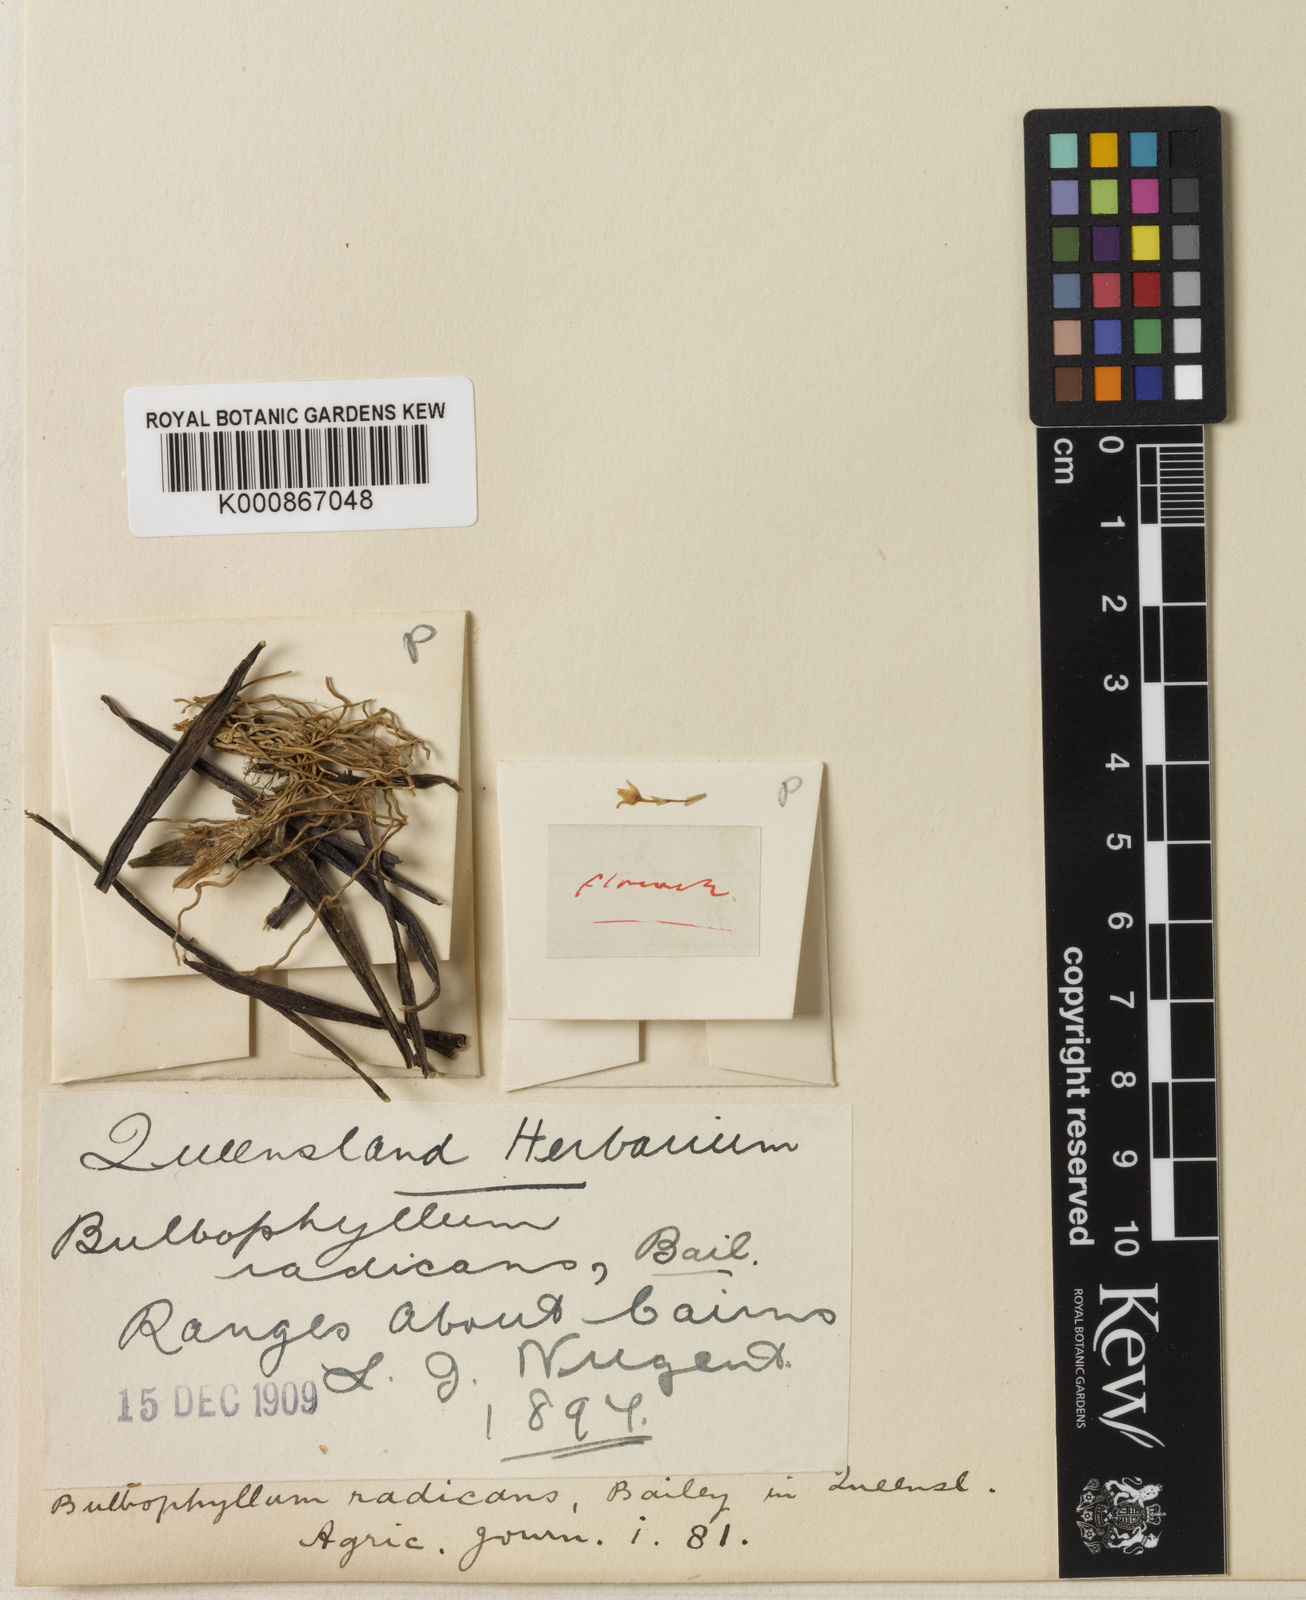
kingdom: Plantae
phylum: Tracheophyta
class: Liliopsida
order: Asparagales
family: Orchidaceae
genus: Bulbophyllum
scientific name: Bulbophyllum radicans
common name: Stripped pyjama orchid
